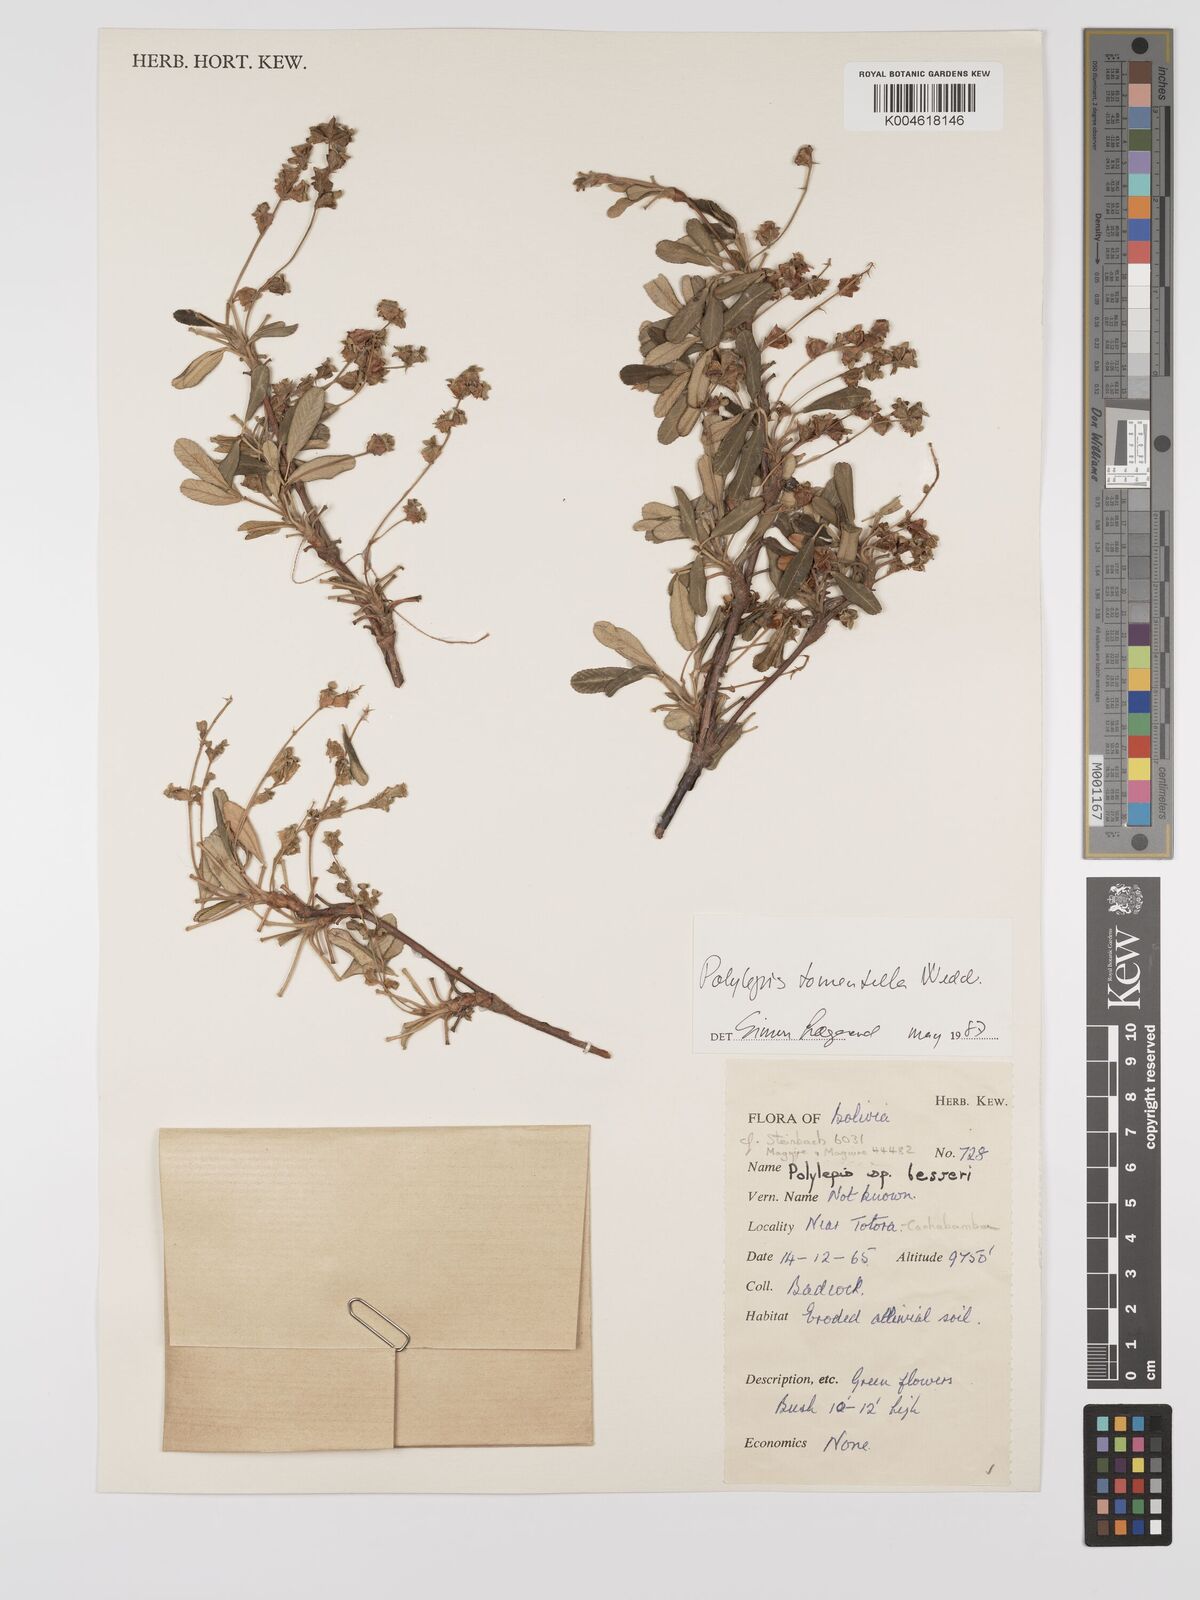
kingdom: Plantae
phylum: Tracheophyta
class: Magnoliopsida
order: Rosales
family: Rosaceae
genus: Polylepis
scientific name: Polylepis tomentella
